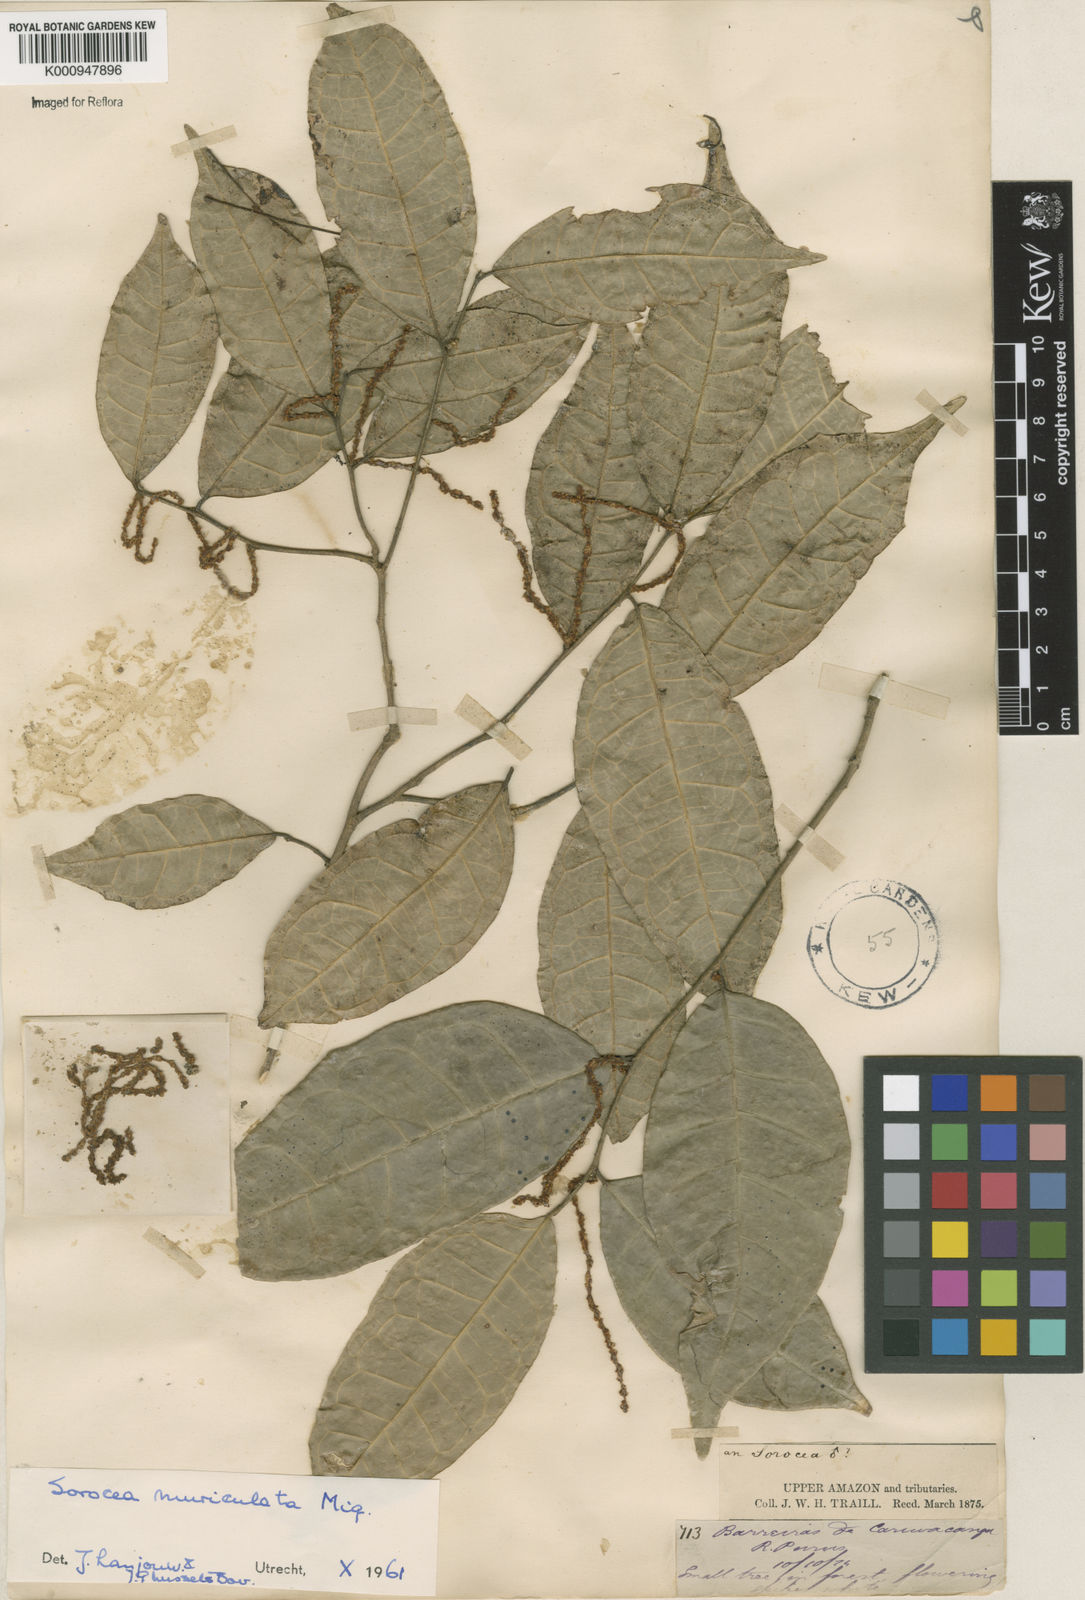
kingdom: Plantae
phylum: Tracheophyta
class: Magnoliopsida
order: Rosales
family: Moraceae
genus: Sorocea
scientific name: Sorocea muriculata
